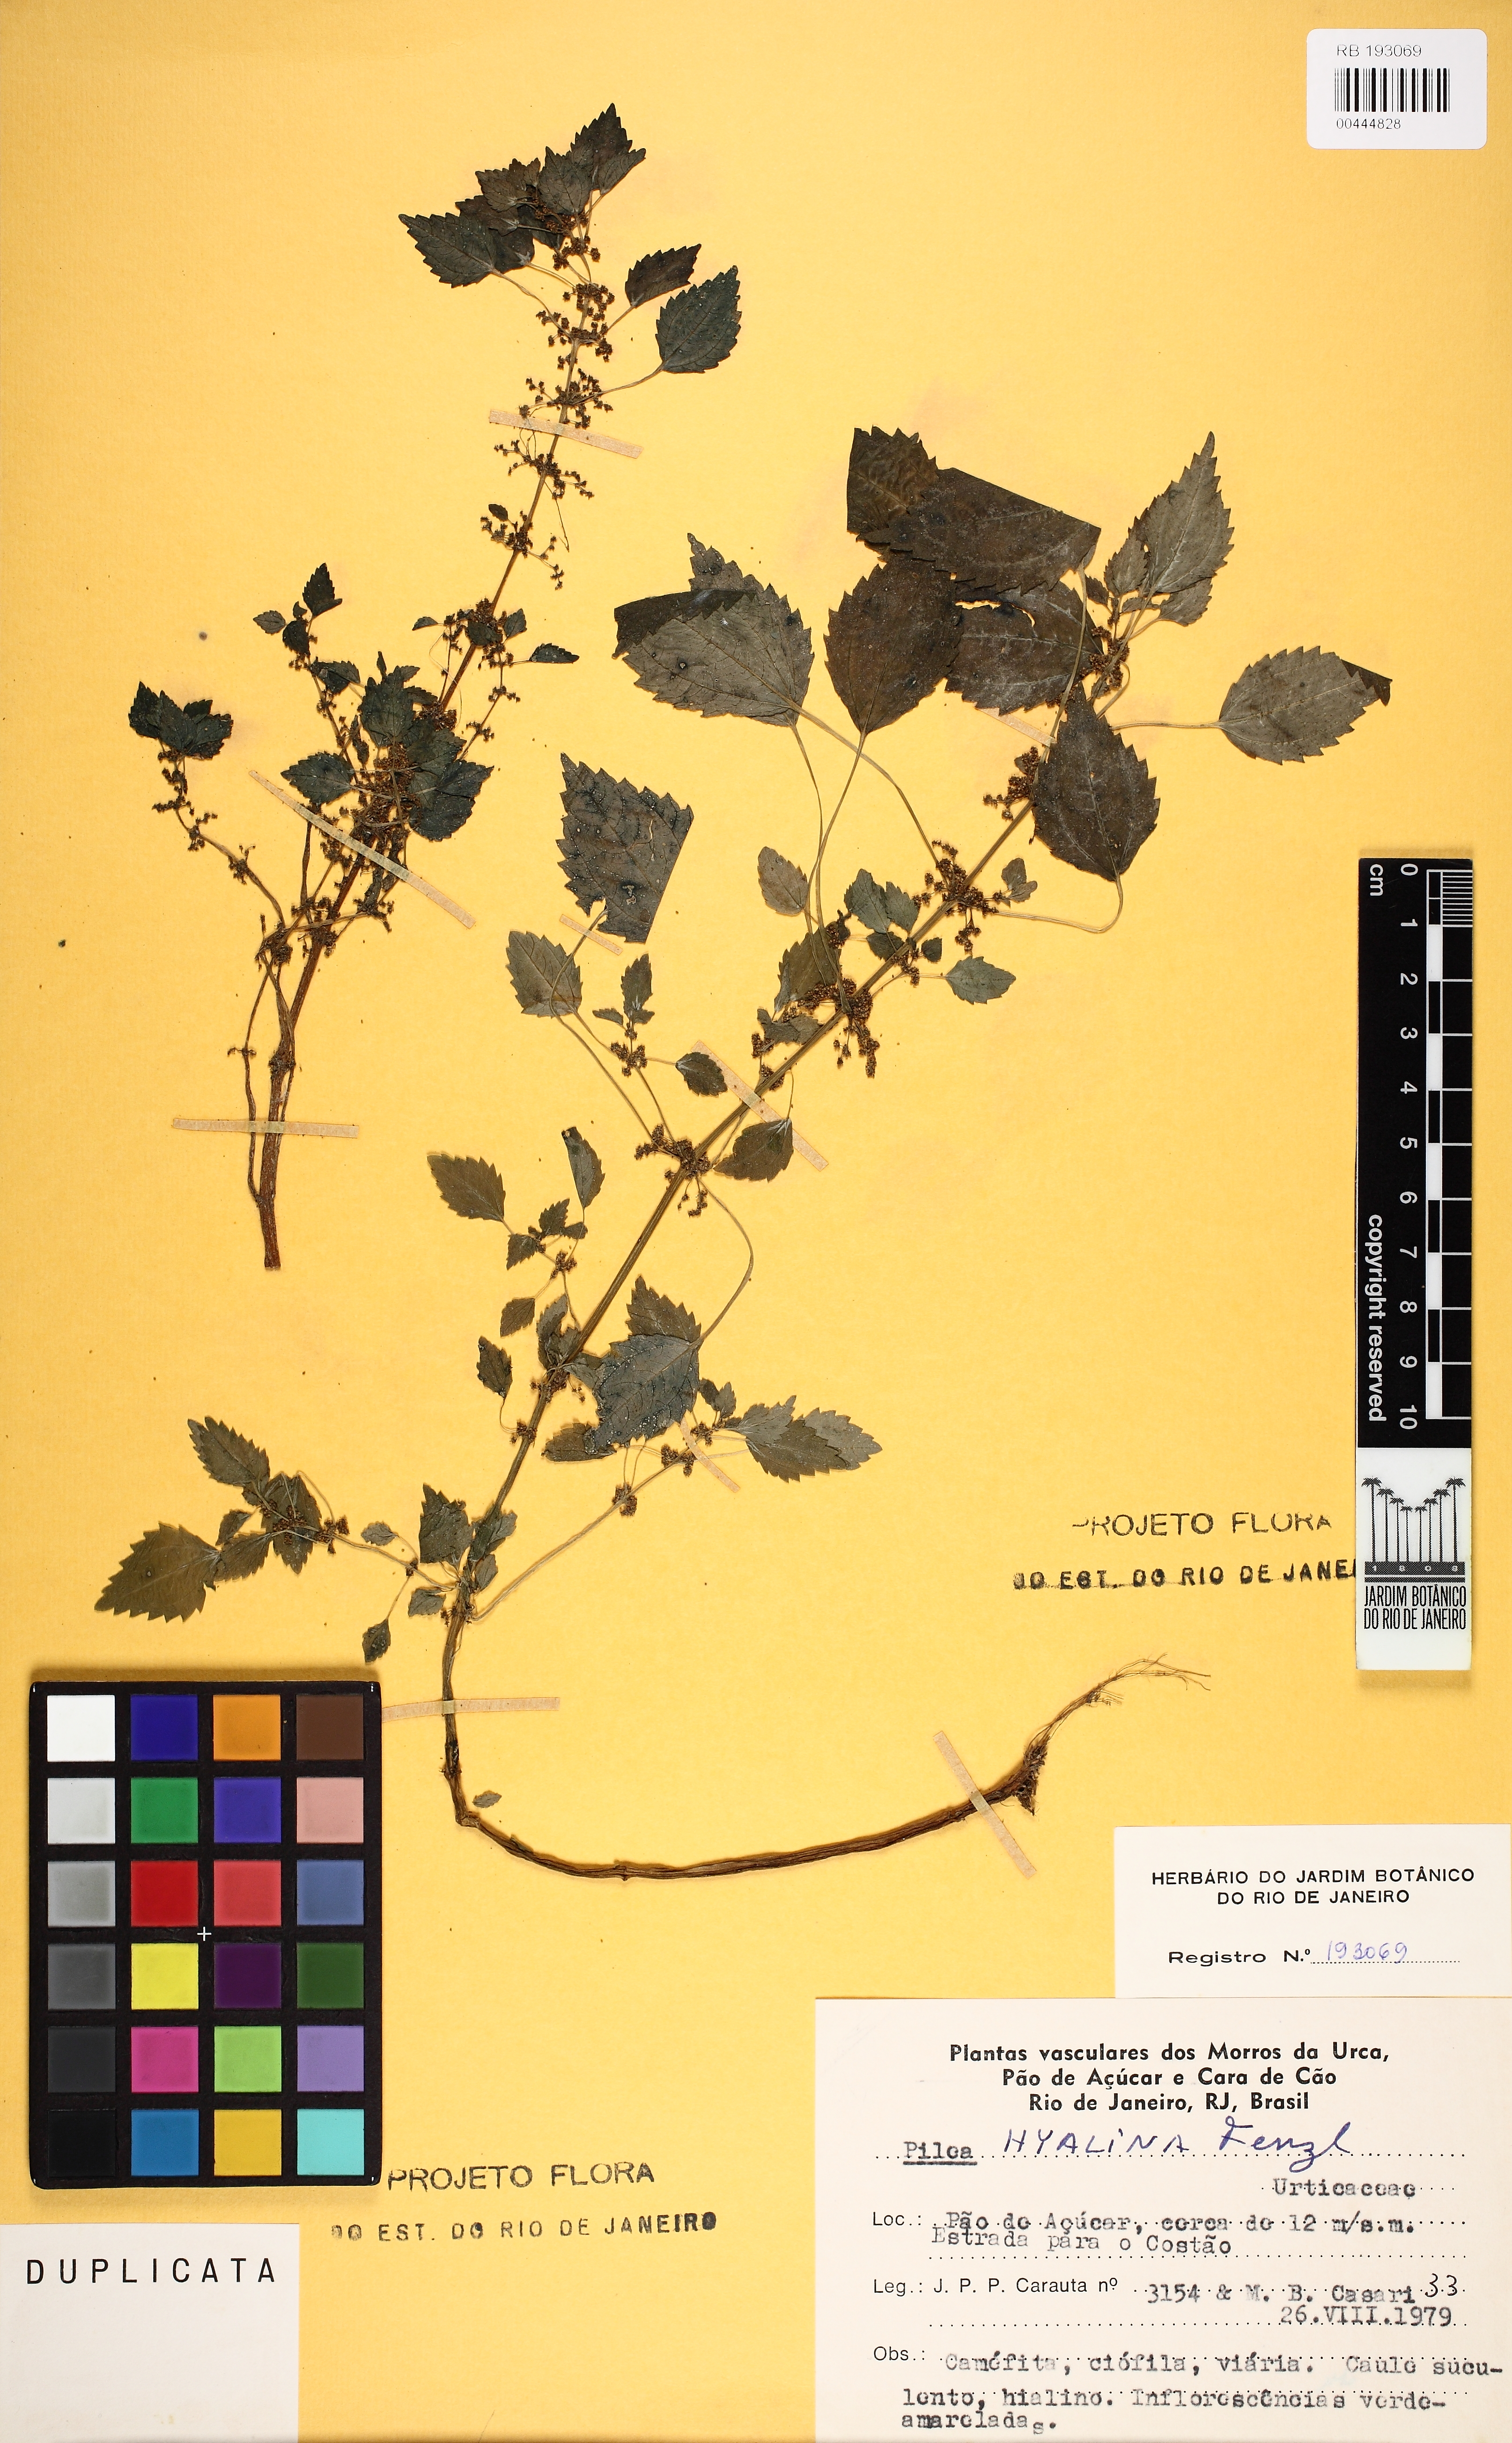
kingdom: Plantae
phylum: Tracheophyta
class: Magnoliopsida
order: Rosales
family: Urticaceae
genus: Pilea
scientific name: Pilea hyalina
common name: Virdrillo
